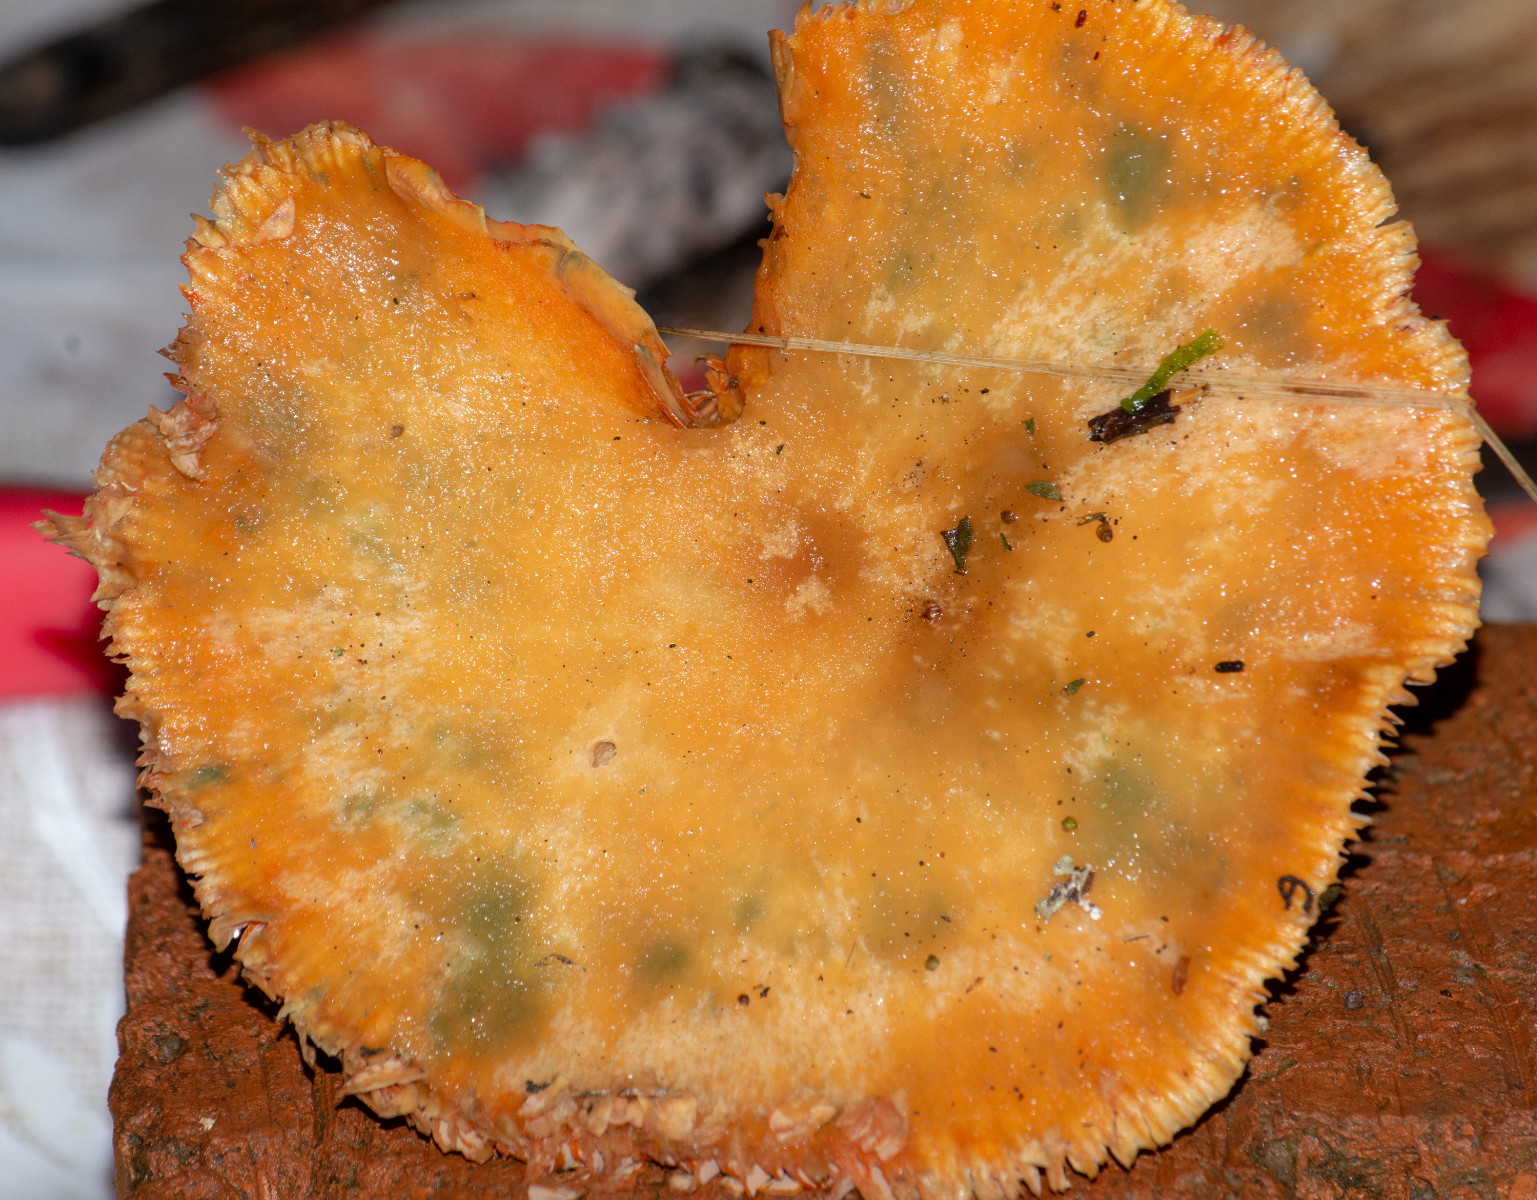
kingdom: Fungi
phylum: Basidiomycota
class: Agaricomycetes
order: Russulales
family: Russulaceae
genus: Lactarius
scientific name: Lactarius deterrimus
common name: gran-mælkehat
